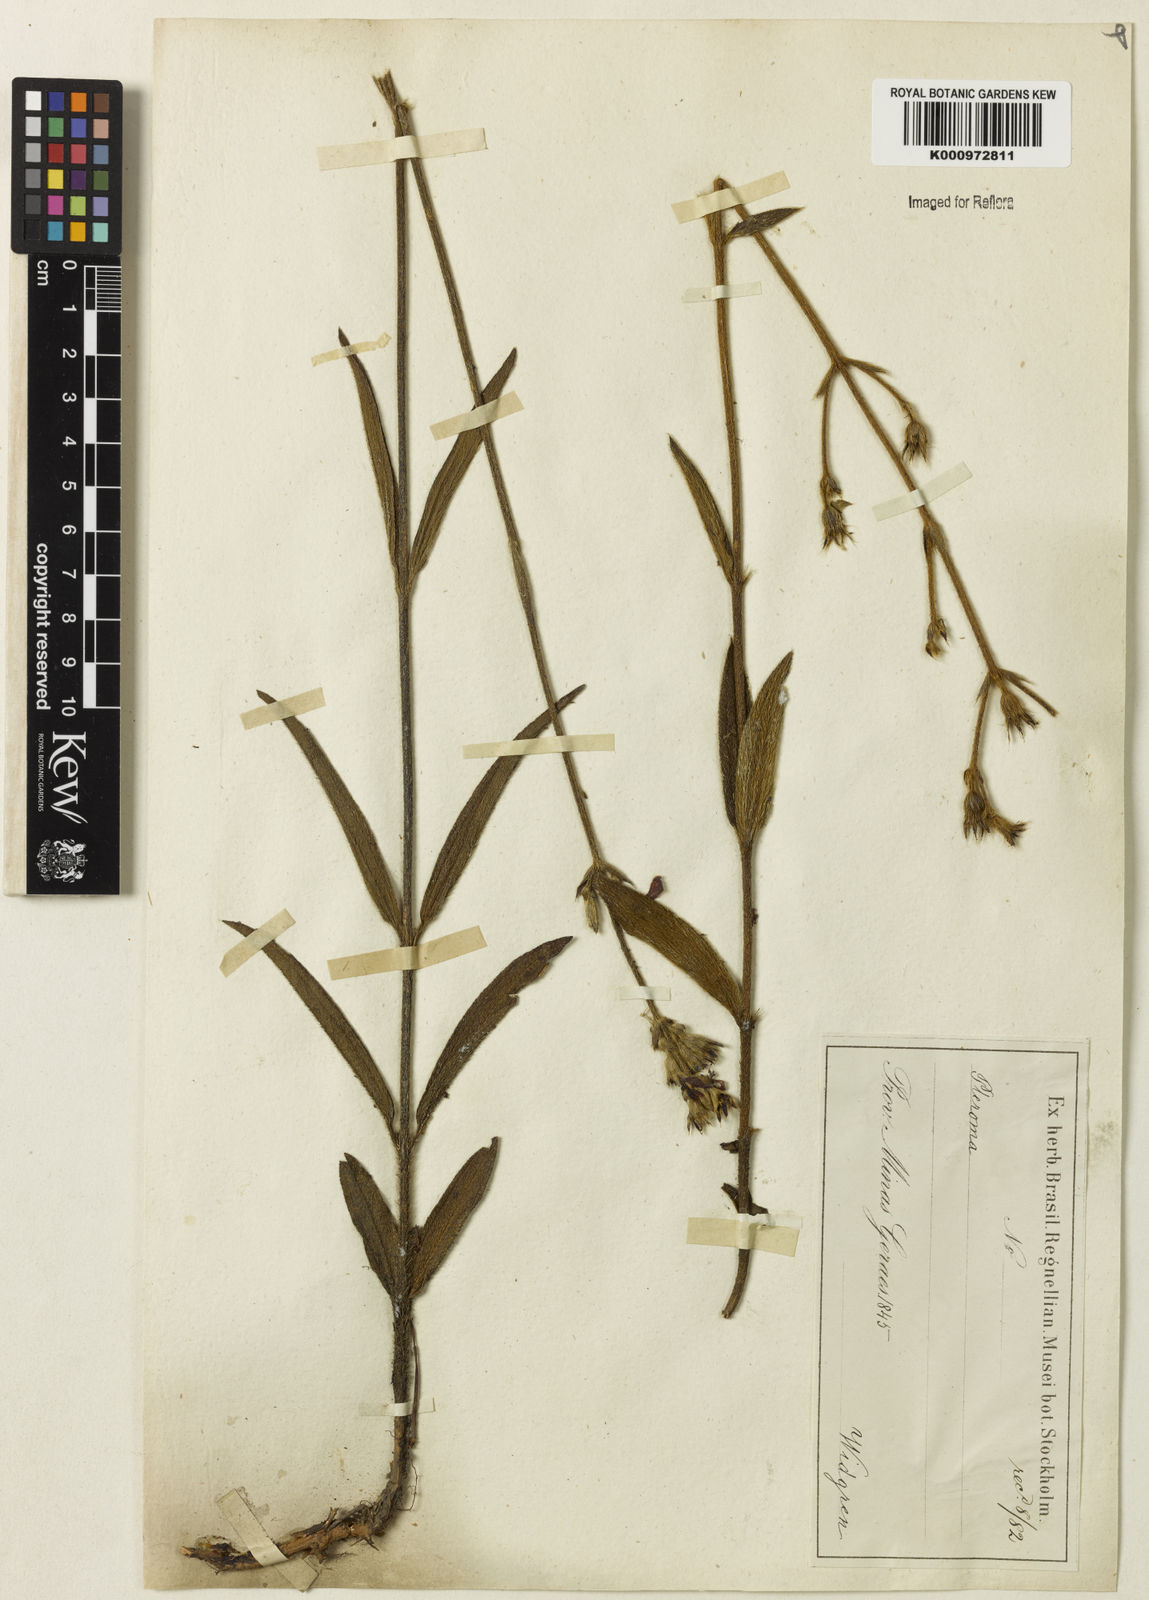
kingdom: Plantae
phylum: Tracheophyta
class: Magnoliopsida
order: Myrtales
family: Melastomataceae
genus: Chaetogastra
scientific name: Chaetogastra gracilis
